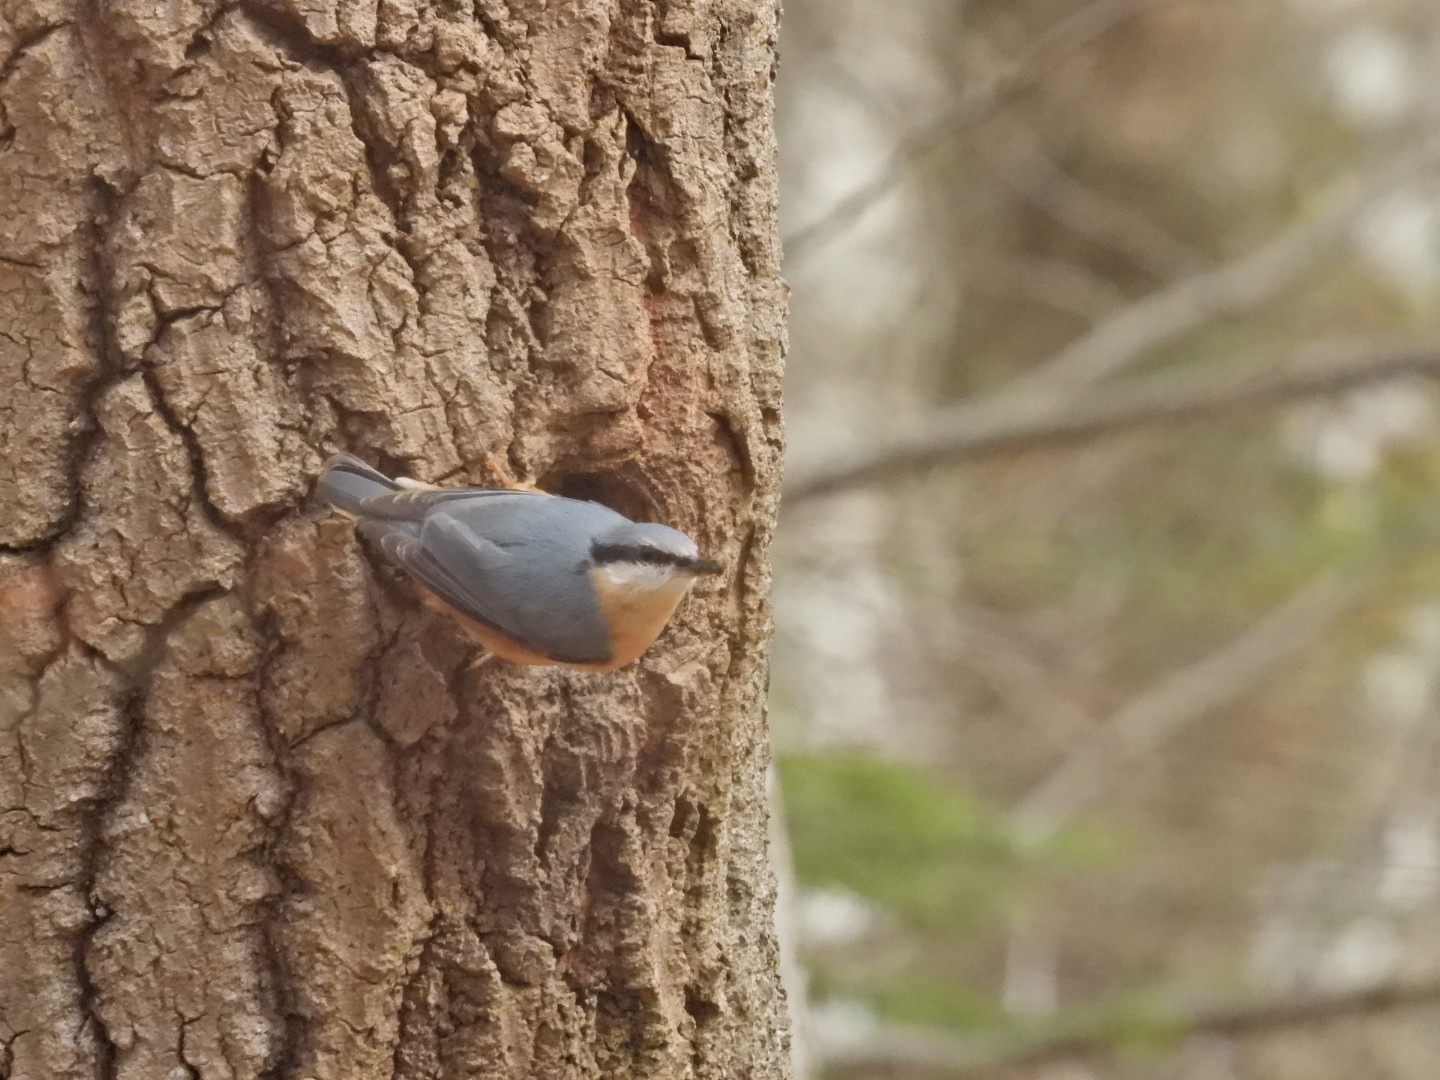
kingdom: Animalia
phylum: Chordata
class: Aves
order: Passeriformes
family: Sittidae
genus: Sitta
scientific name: Sitta europaea
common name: Mørkbuget spætmejse
